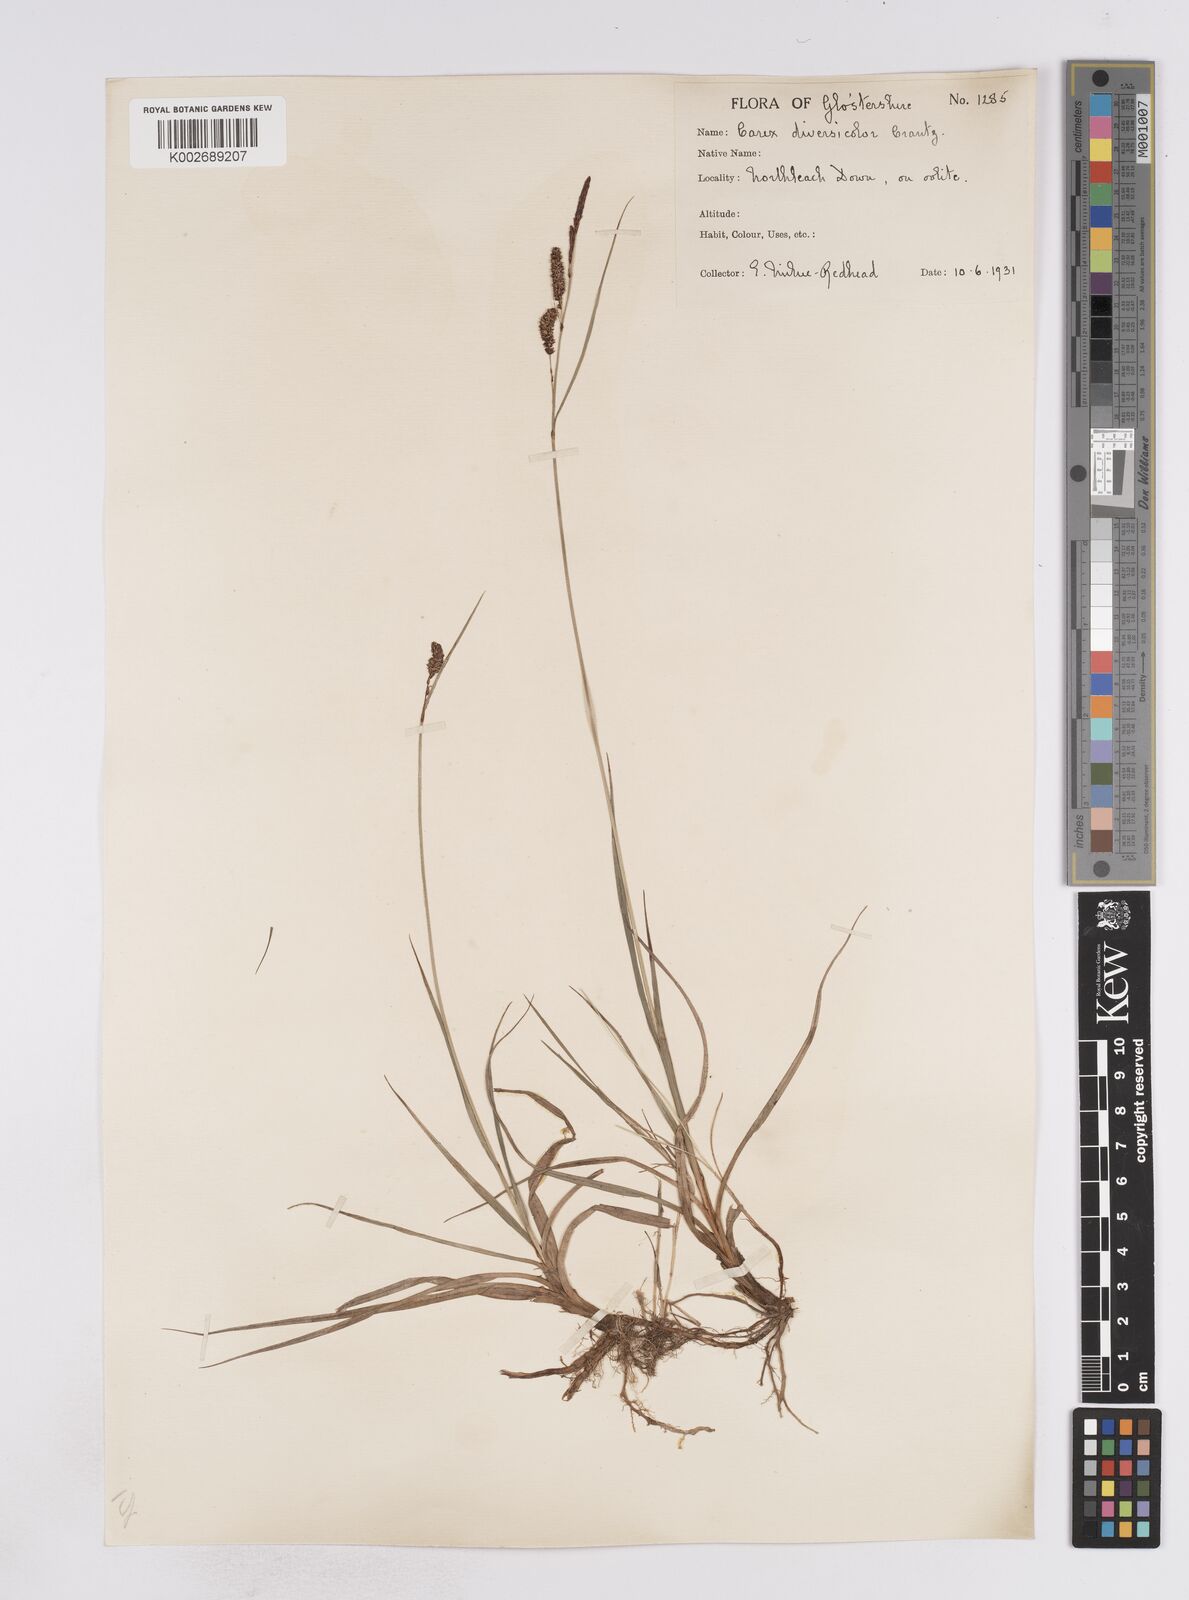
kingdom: Plantae
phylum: Tracheophyta
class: Liliopsida
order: Poales
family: Cyperaceae
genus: Carex
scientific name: Carex flacca
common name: Glaucous sedge
